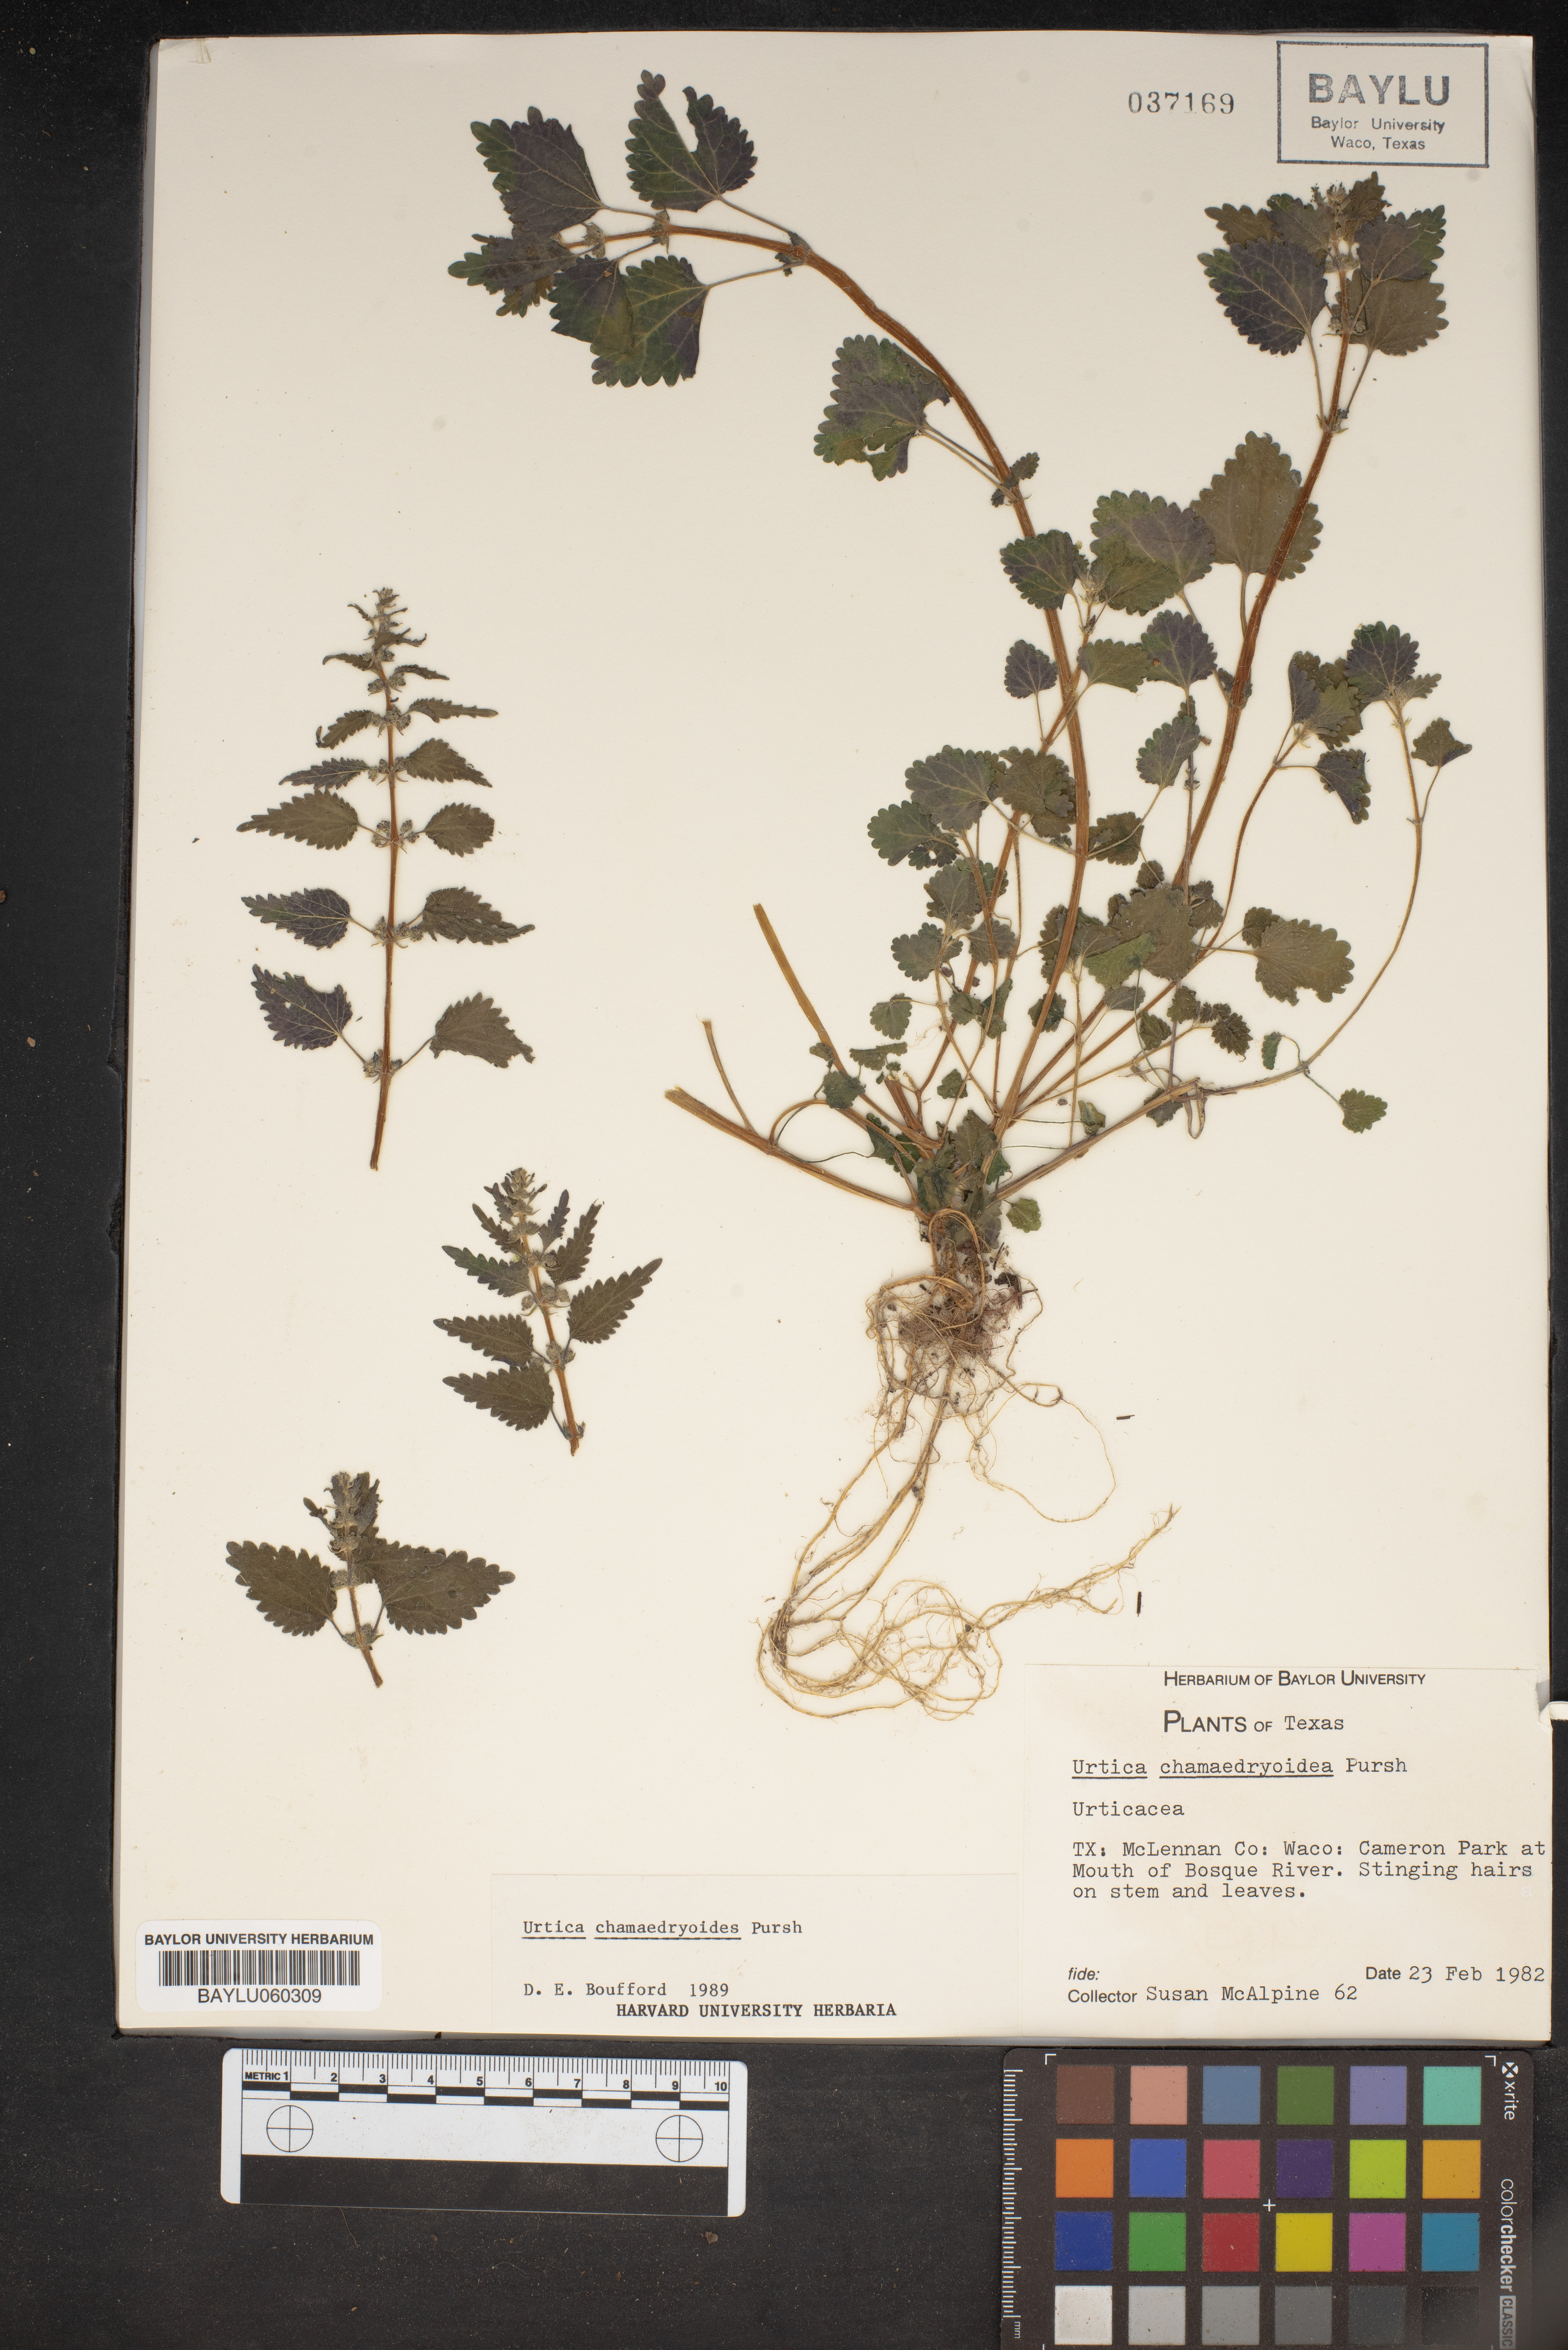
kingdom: Plantae
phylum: Tracheophyta
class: Magnoliopsida
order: Rosales
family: Urticaceae
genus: Urtica
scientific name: Urtica chamaedryoides
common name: Heart-leaf nettle
